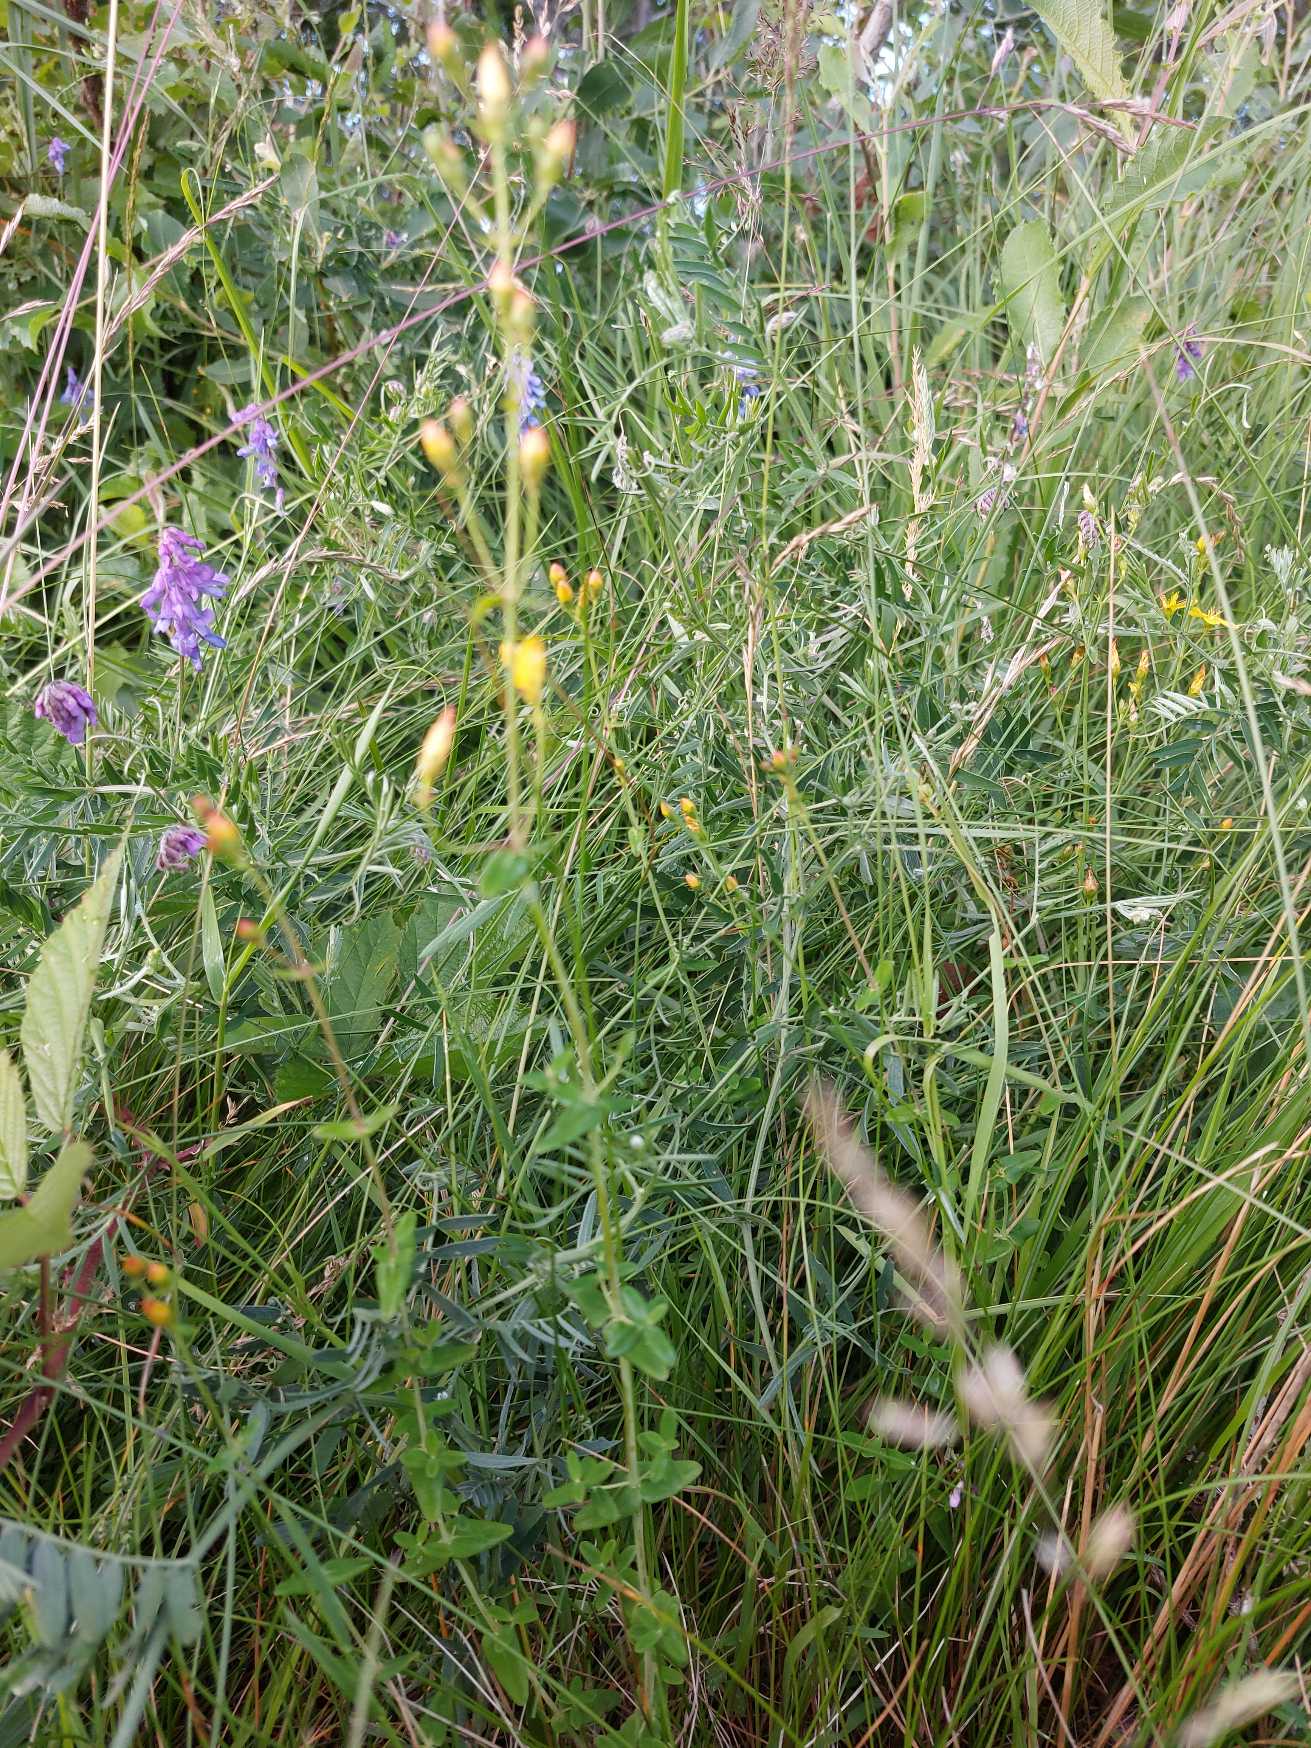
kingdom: Plantae
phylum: Tracheophyta
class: Magnoliopsida
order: Malpighiales
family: Hypericaceae
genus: Hypericum
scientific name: Hypericum pulchrum
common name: Smuk perikon
